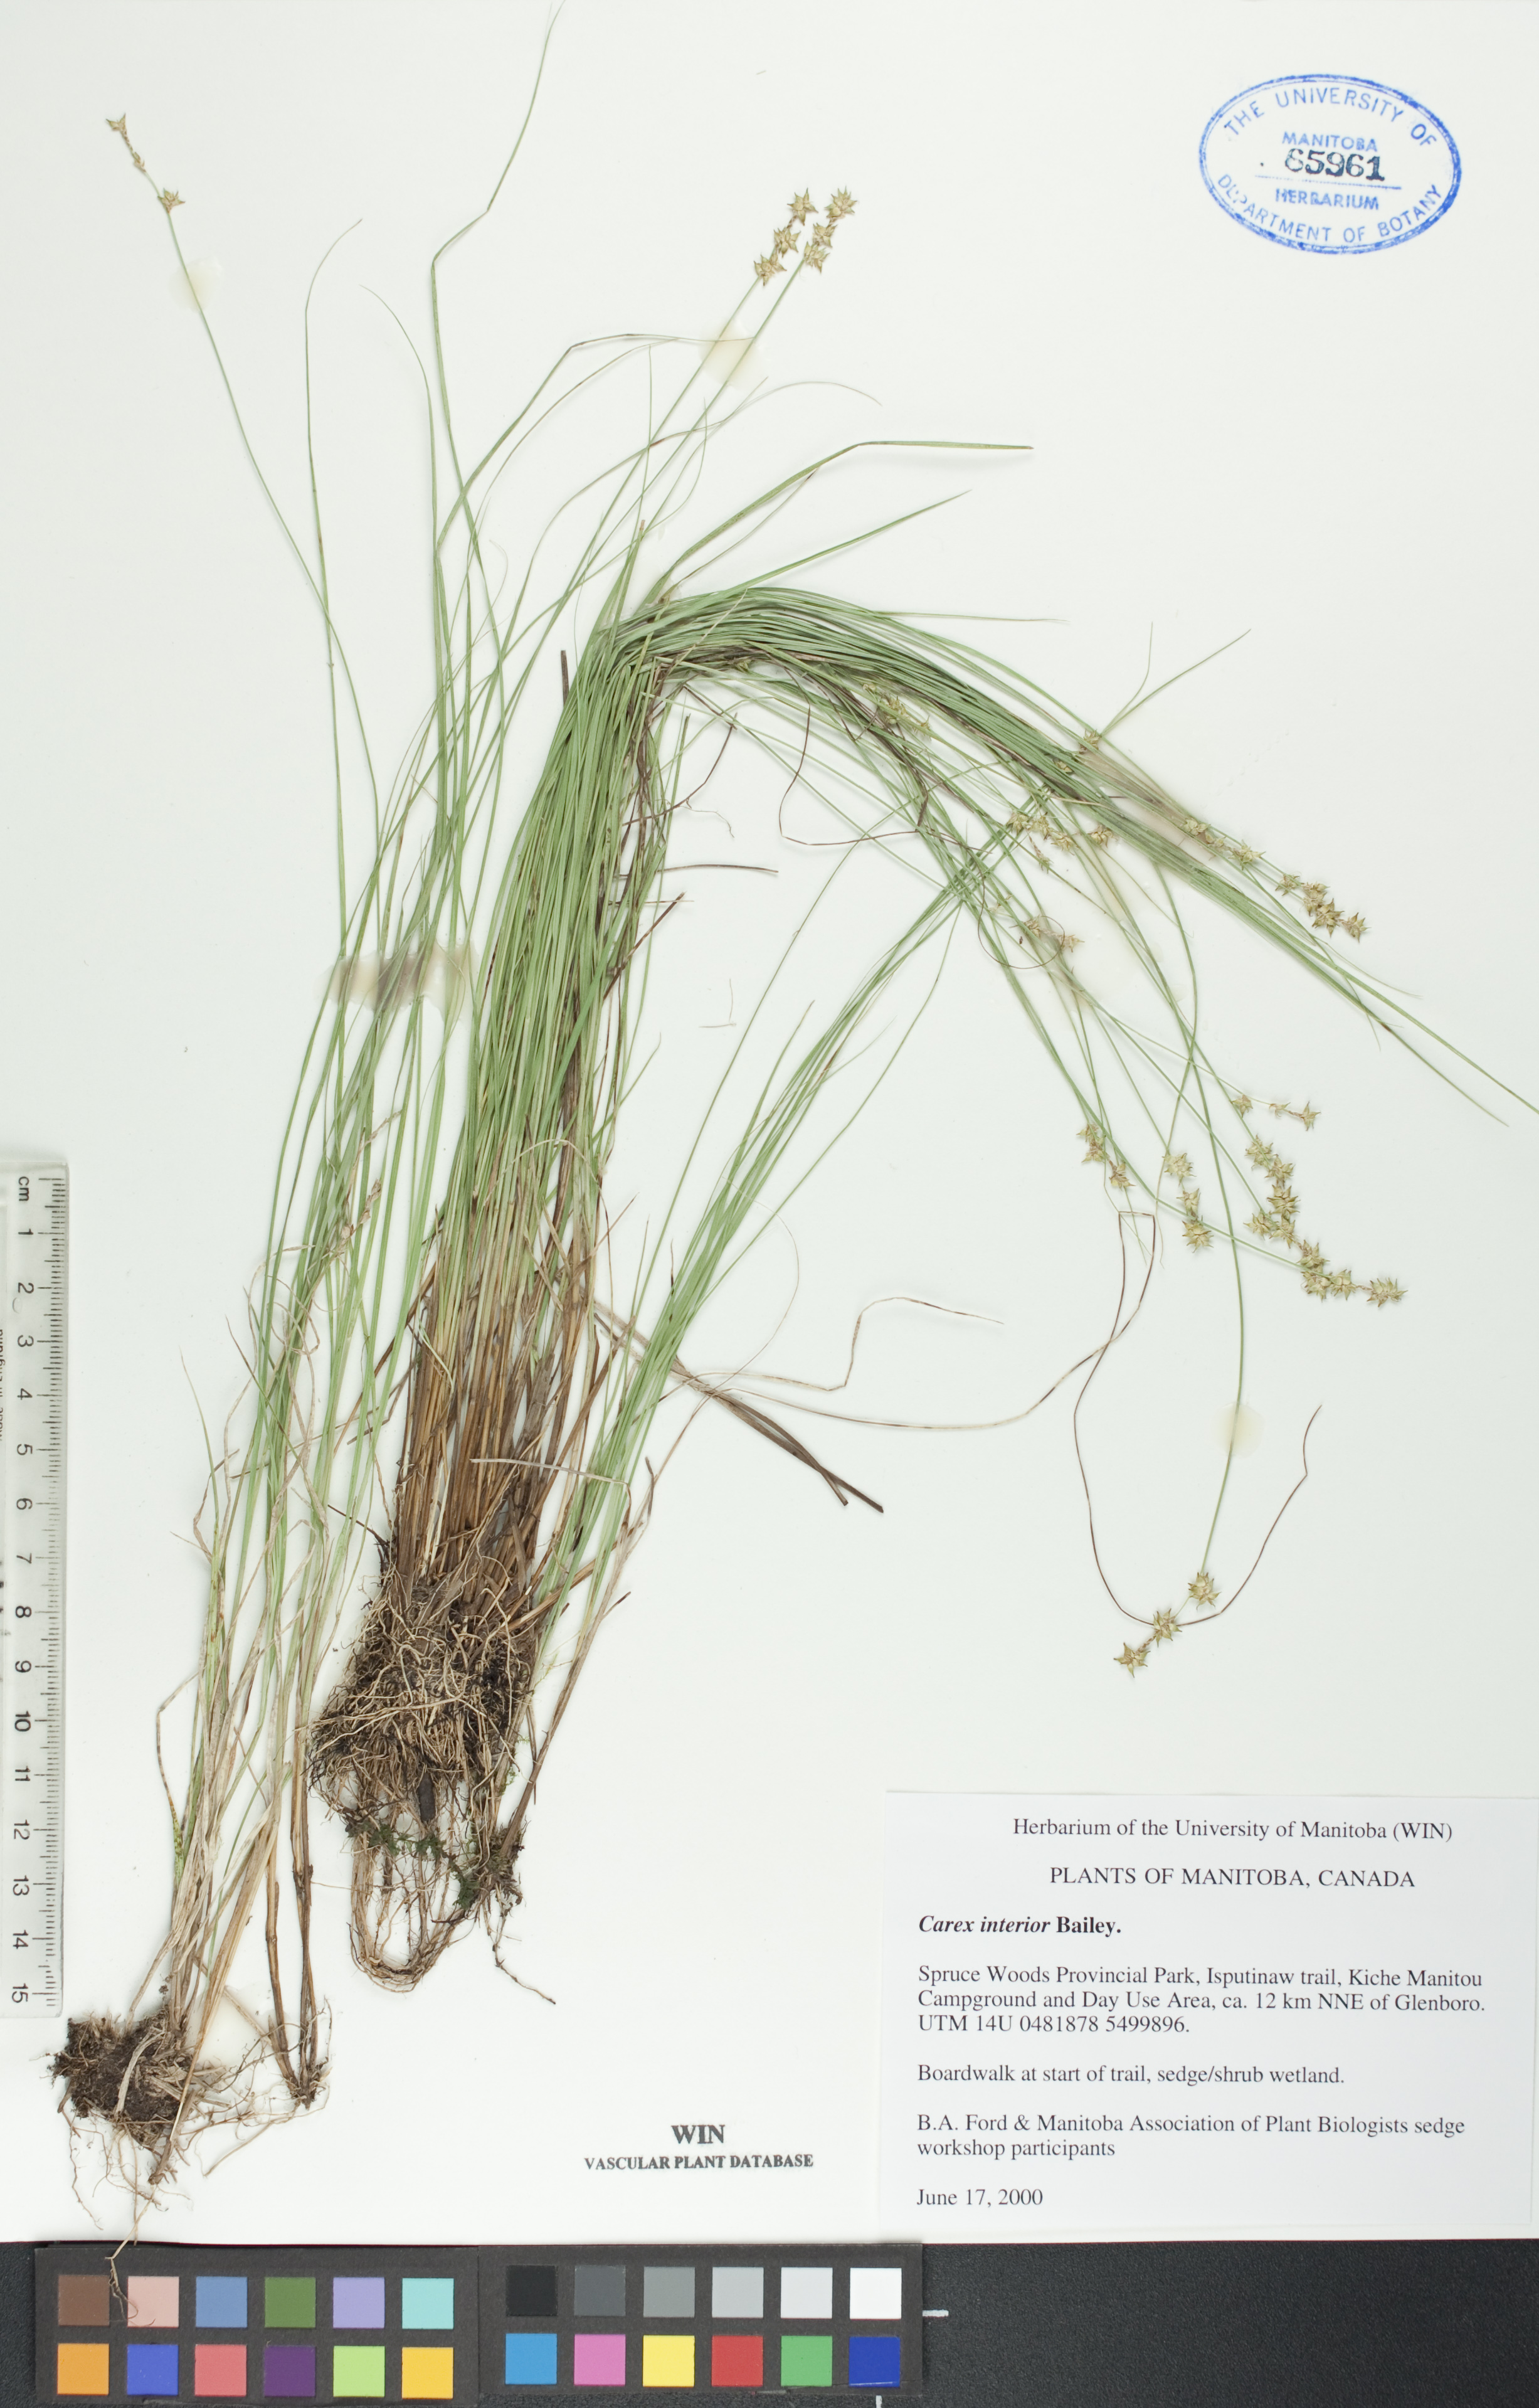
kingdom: Plantae
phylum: Tracheophyta
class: Liliopsida
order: Poales
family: Cyperaceae
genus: Carex
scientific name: Carex interior
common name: Inland sedge
